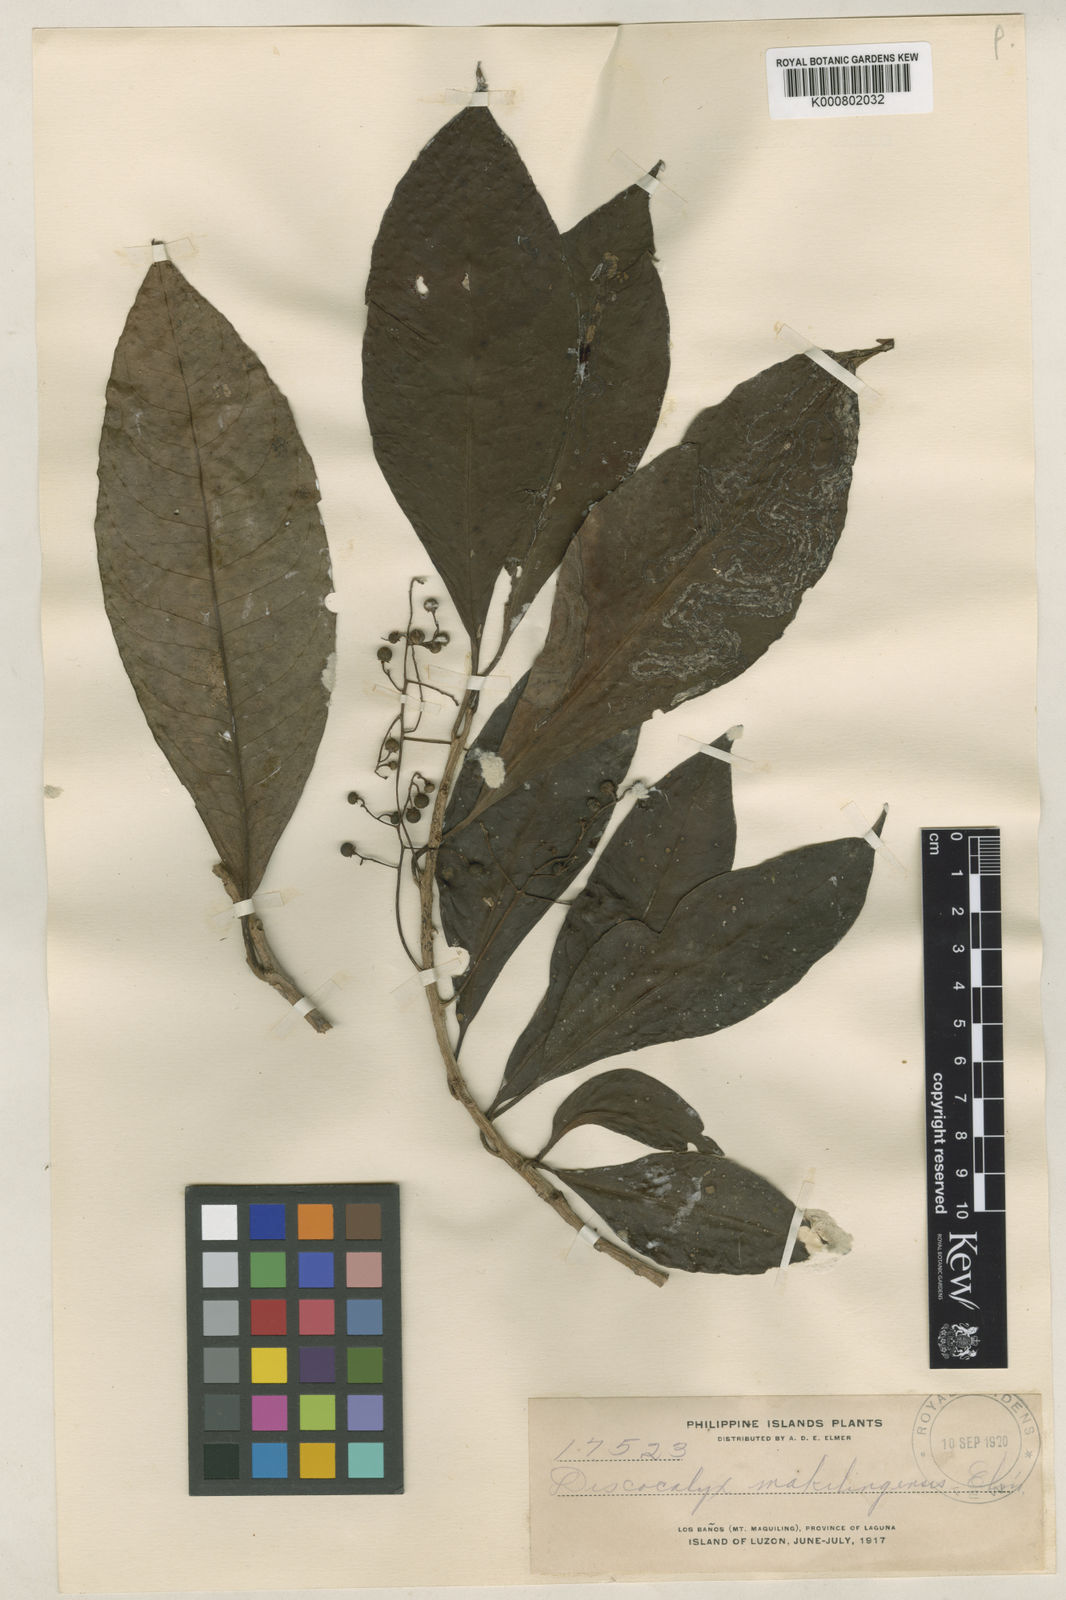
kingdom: Plantae
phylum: Tracheophyta
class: Magnoliopsida
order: Ericales
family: Primulaceae
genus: Discocalyx
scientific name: Discocalyx
